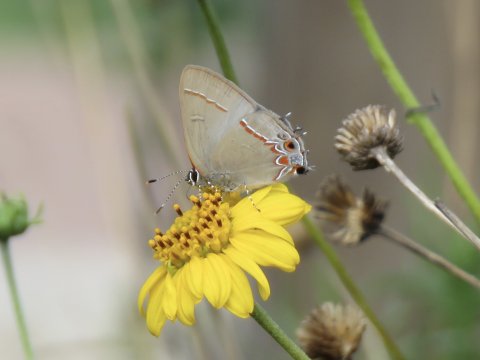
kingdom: Animalia
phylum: Arthropoda
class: Insecta
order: Lepidoptera
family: Lycaenidae
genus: Calycopis
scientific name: Calycopis isobeon
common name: Dusky-blue Groundstreak
